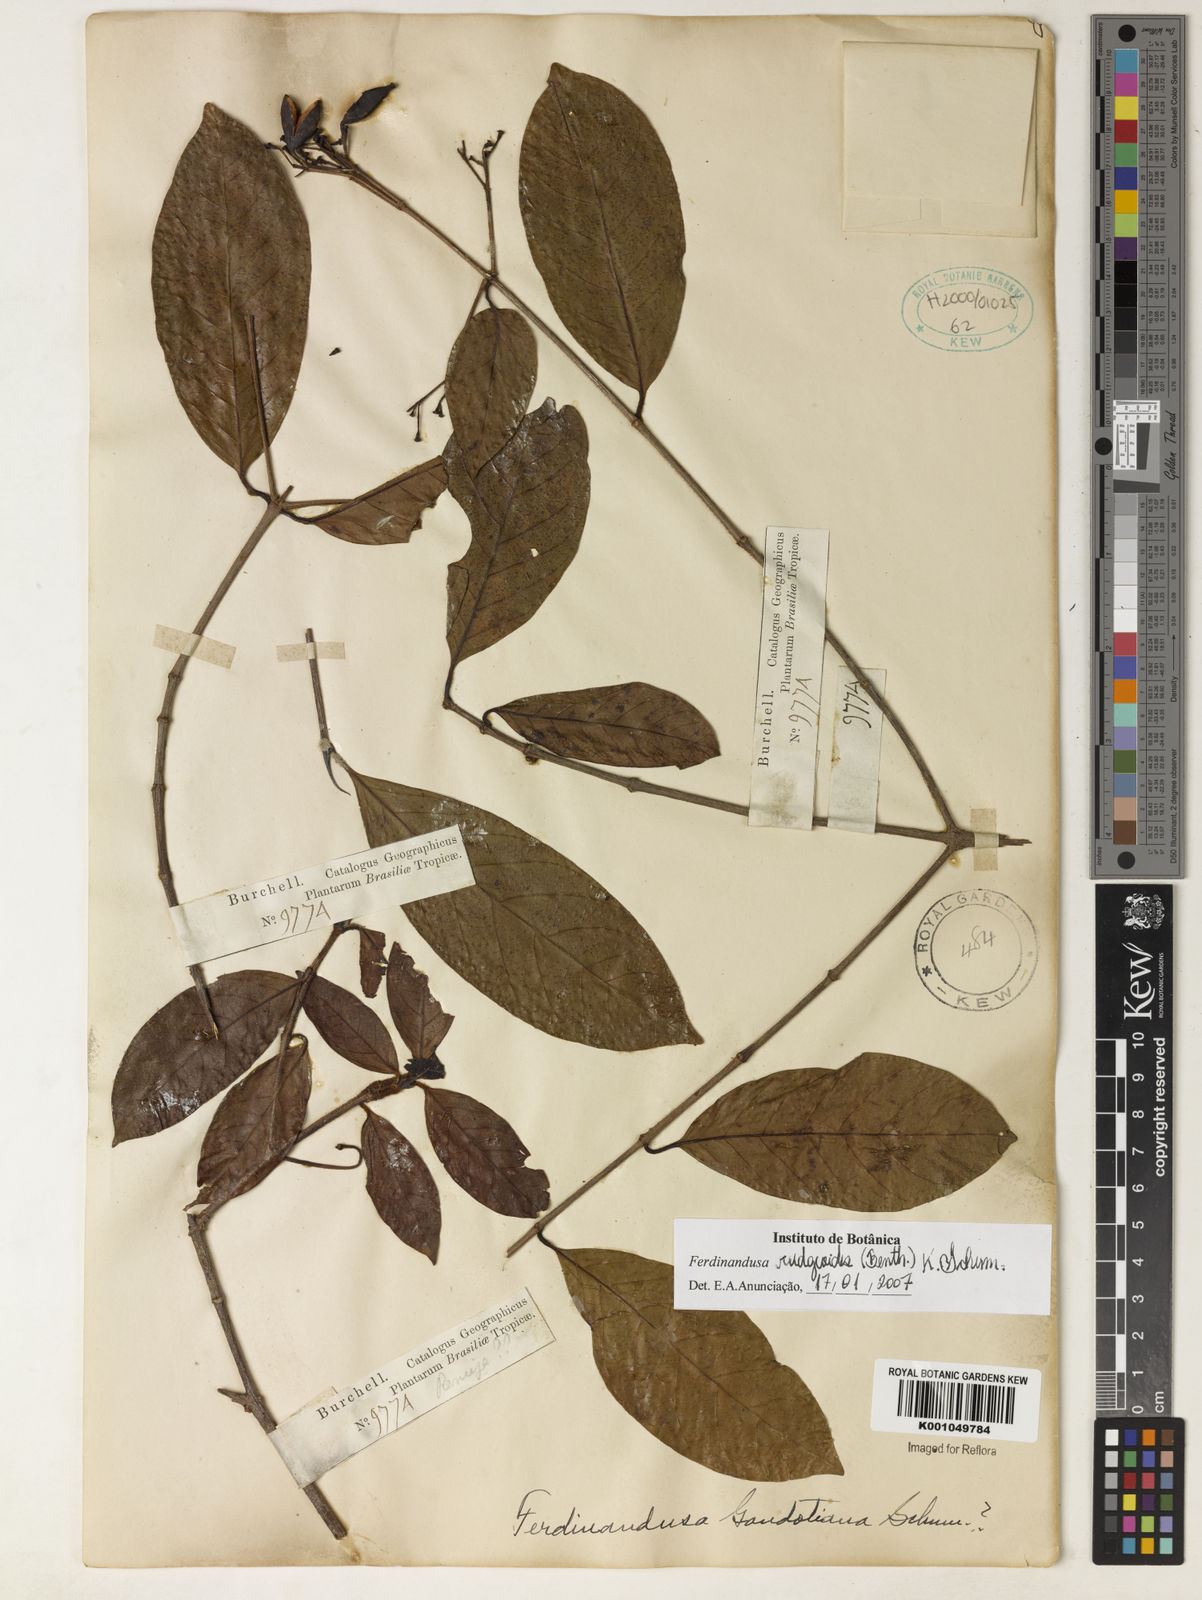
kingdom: Plantae
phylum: Tracheophyta
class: Magnoliopsida
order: Gentianales
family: Rubiaceae
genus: Ferdinandusa
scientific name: Ferdinandusa rudgeoides
